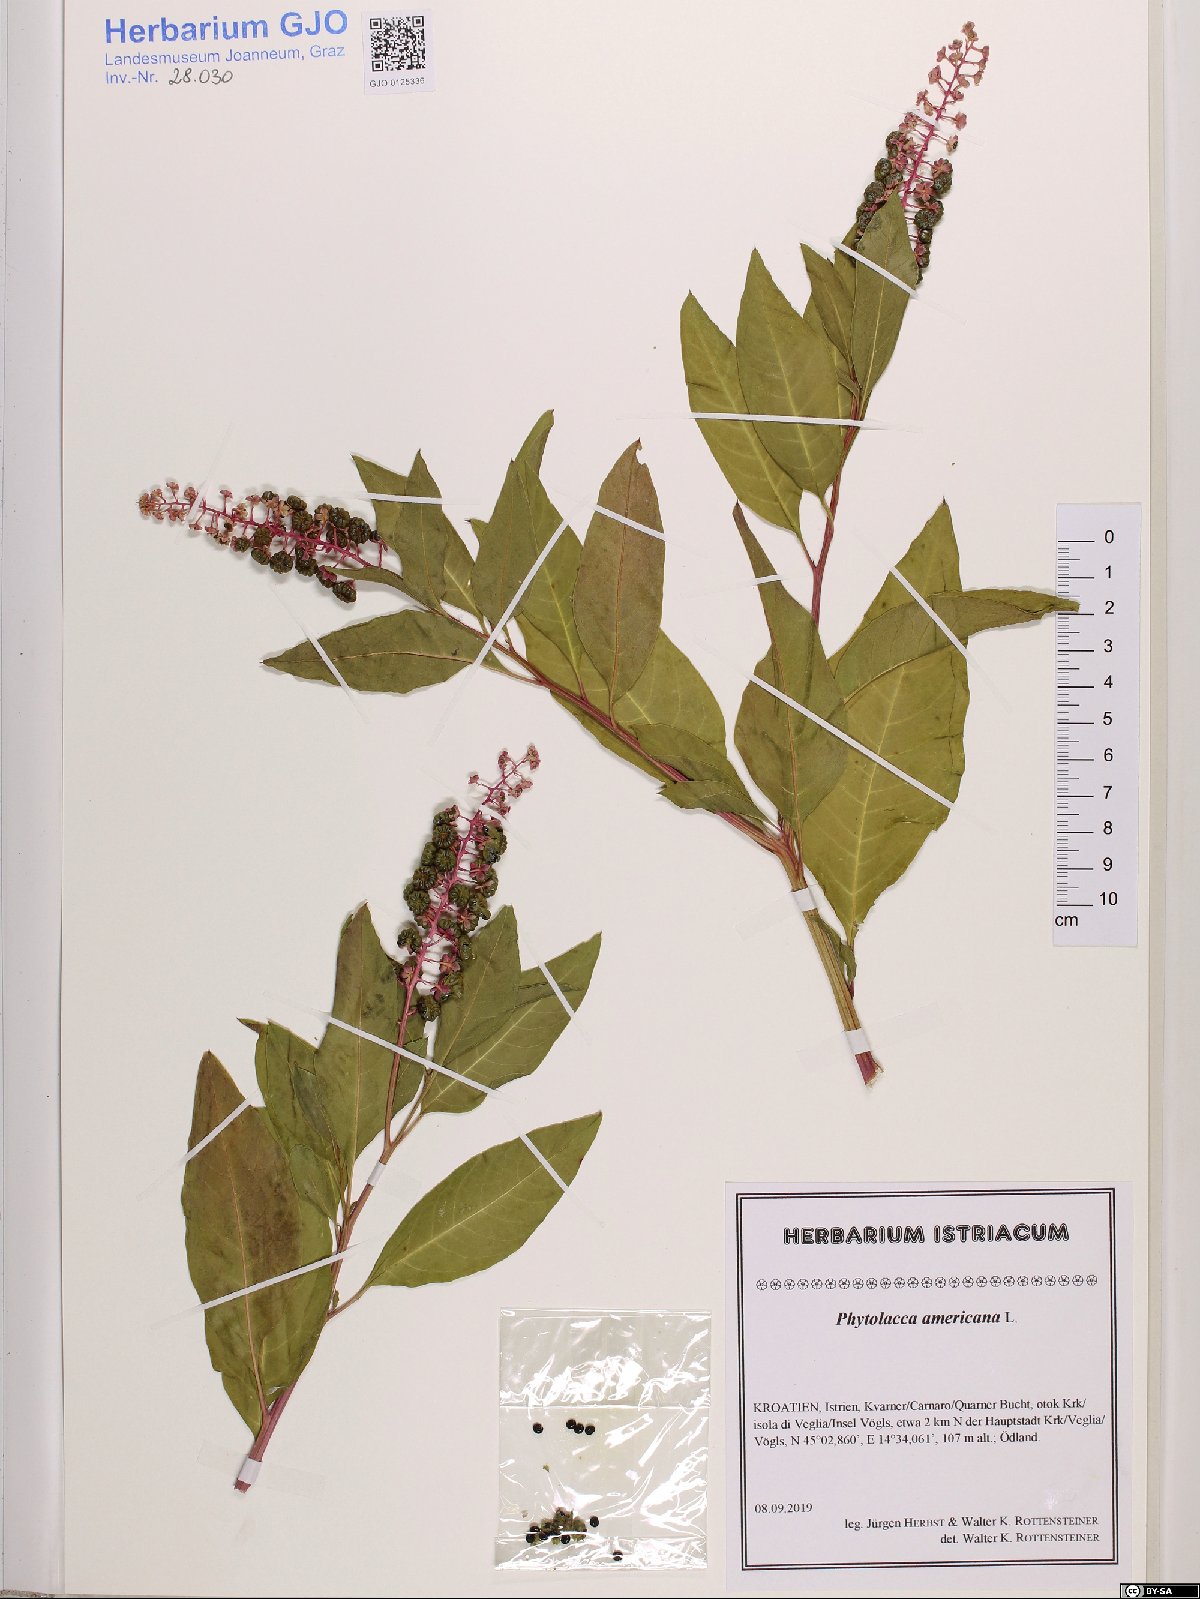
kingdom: Plantae
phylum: Tracheophyta
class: Magnoliopsida
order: Caryophyllales
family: Phytolaccaceae
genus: Phytolacca
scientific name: Phytolacca americana
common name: American pokeweed
